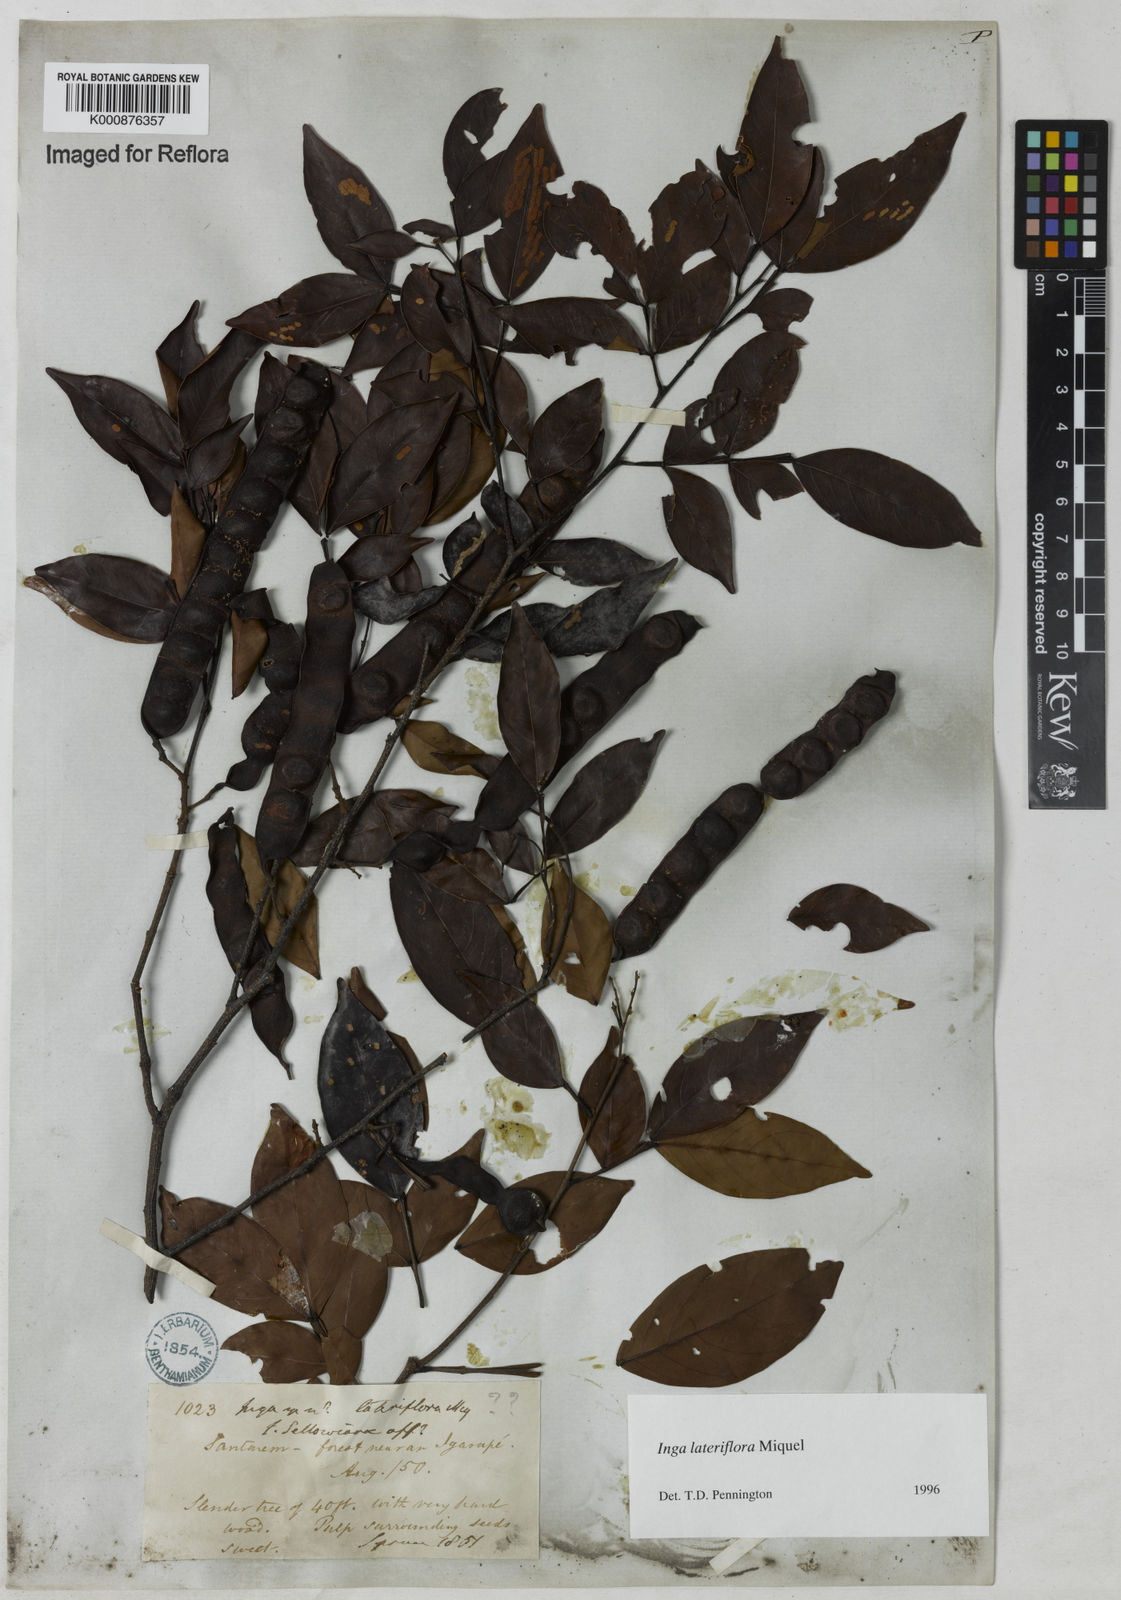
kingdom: Plantae
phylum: Tracheophyta
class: Magnoliopsida
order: Fabales
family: Fabaceae
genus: Inga
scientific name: Inga lateriflora
